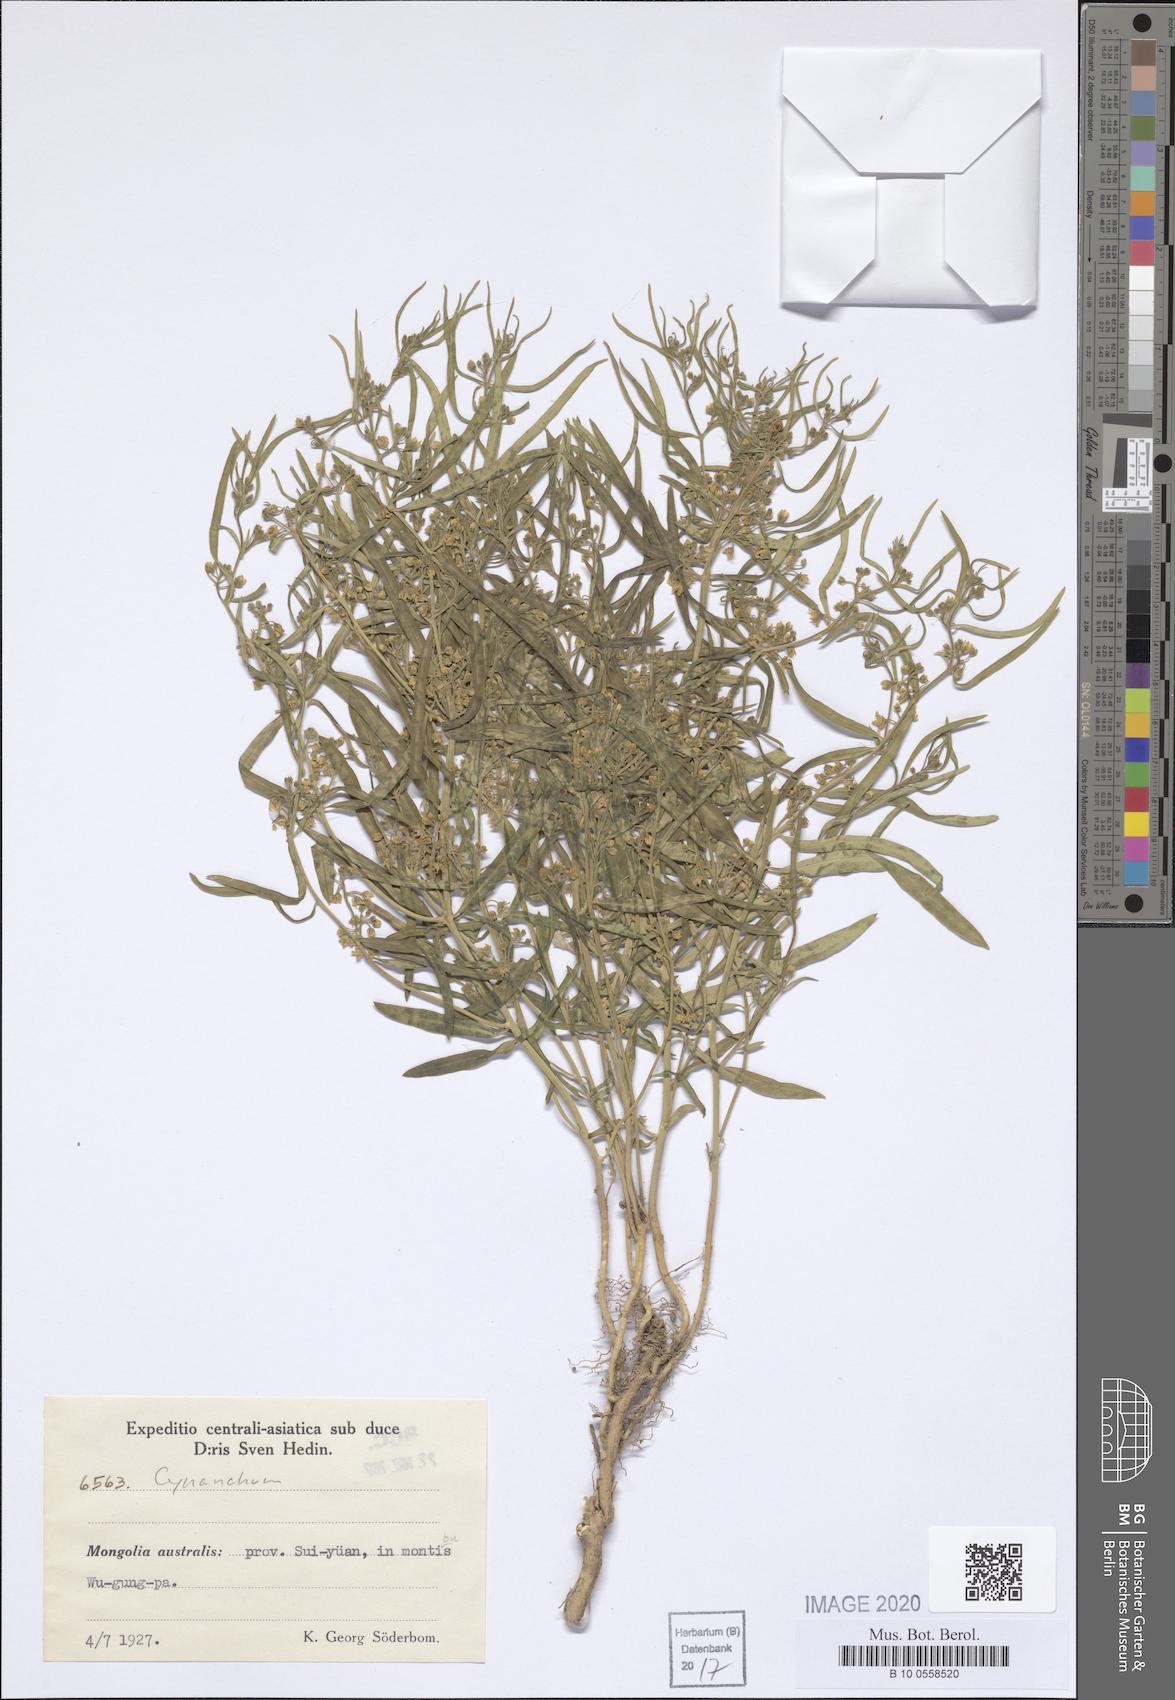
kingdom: Plantae
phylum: Tracheophyta
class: Magnoliopsida
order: Gentianales
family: Apocynaceae
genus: Cynanchum
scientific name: Cynanchum
